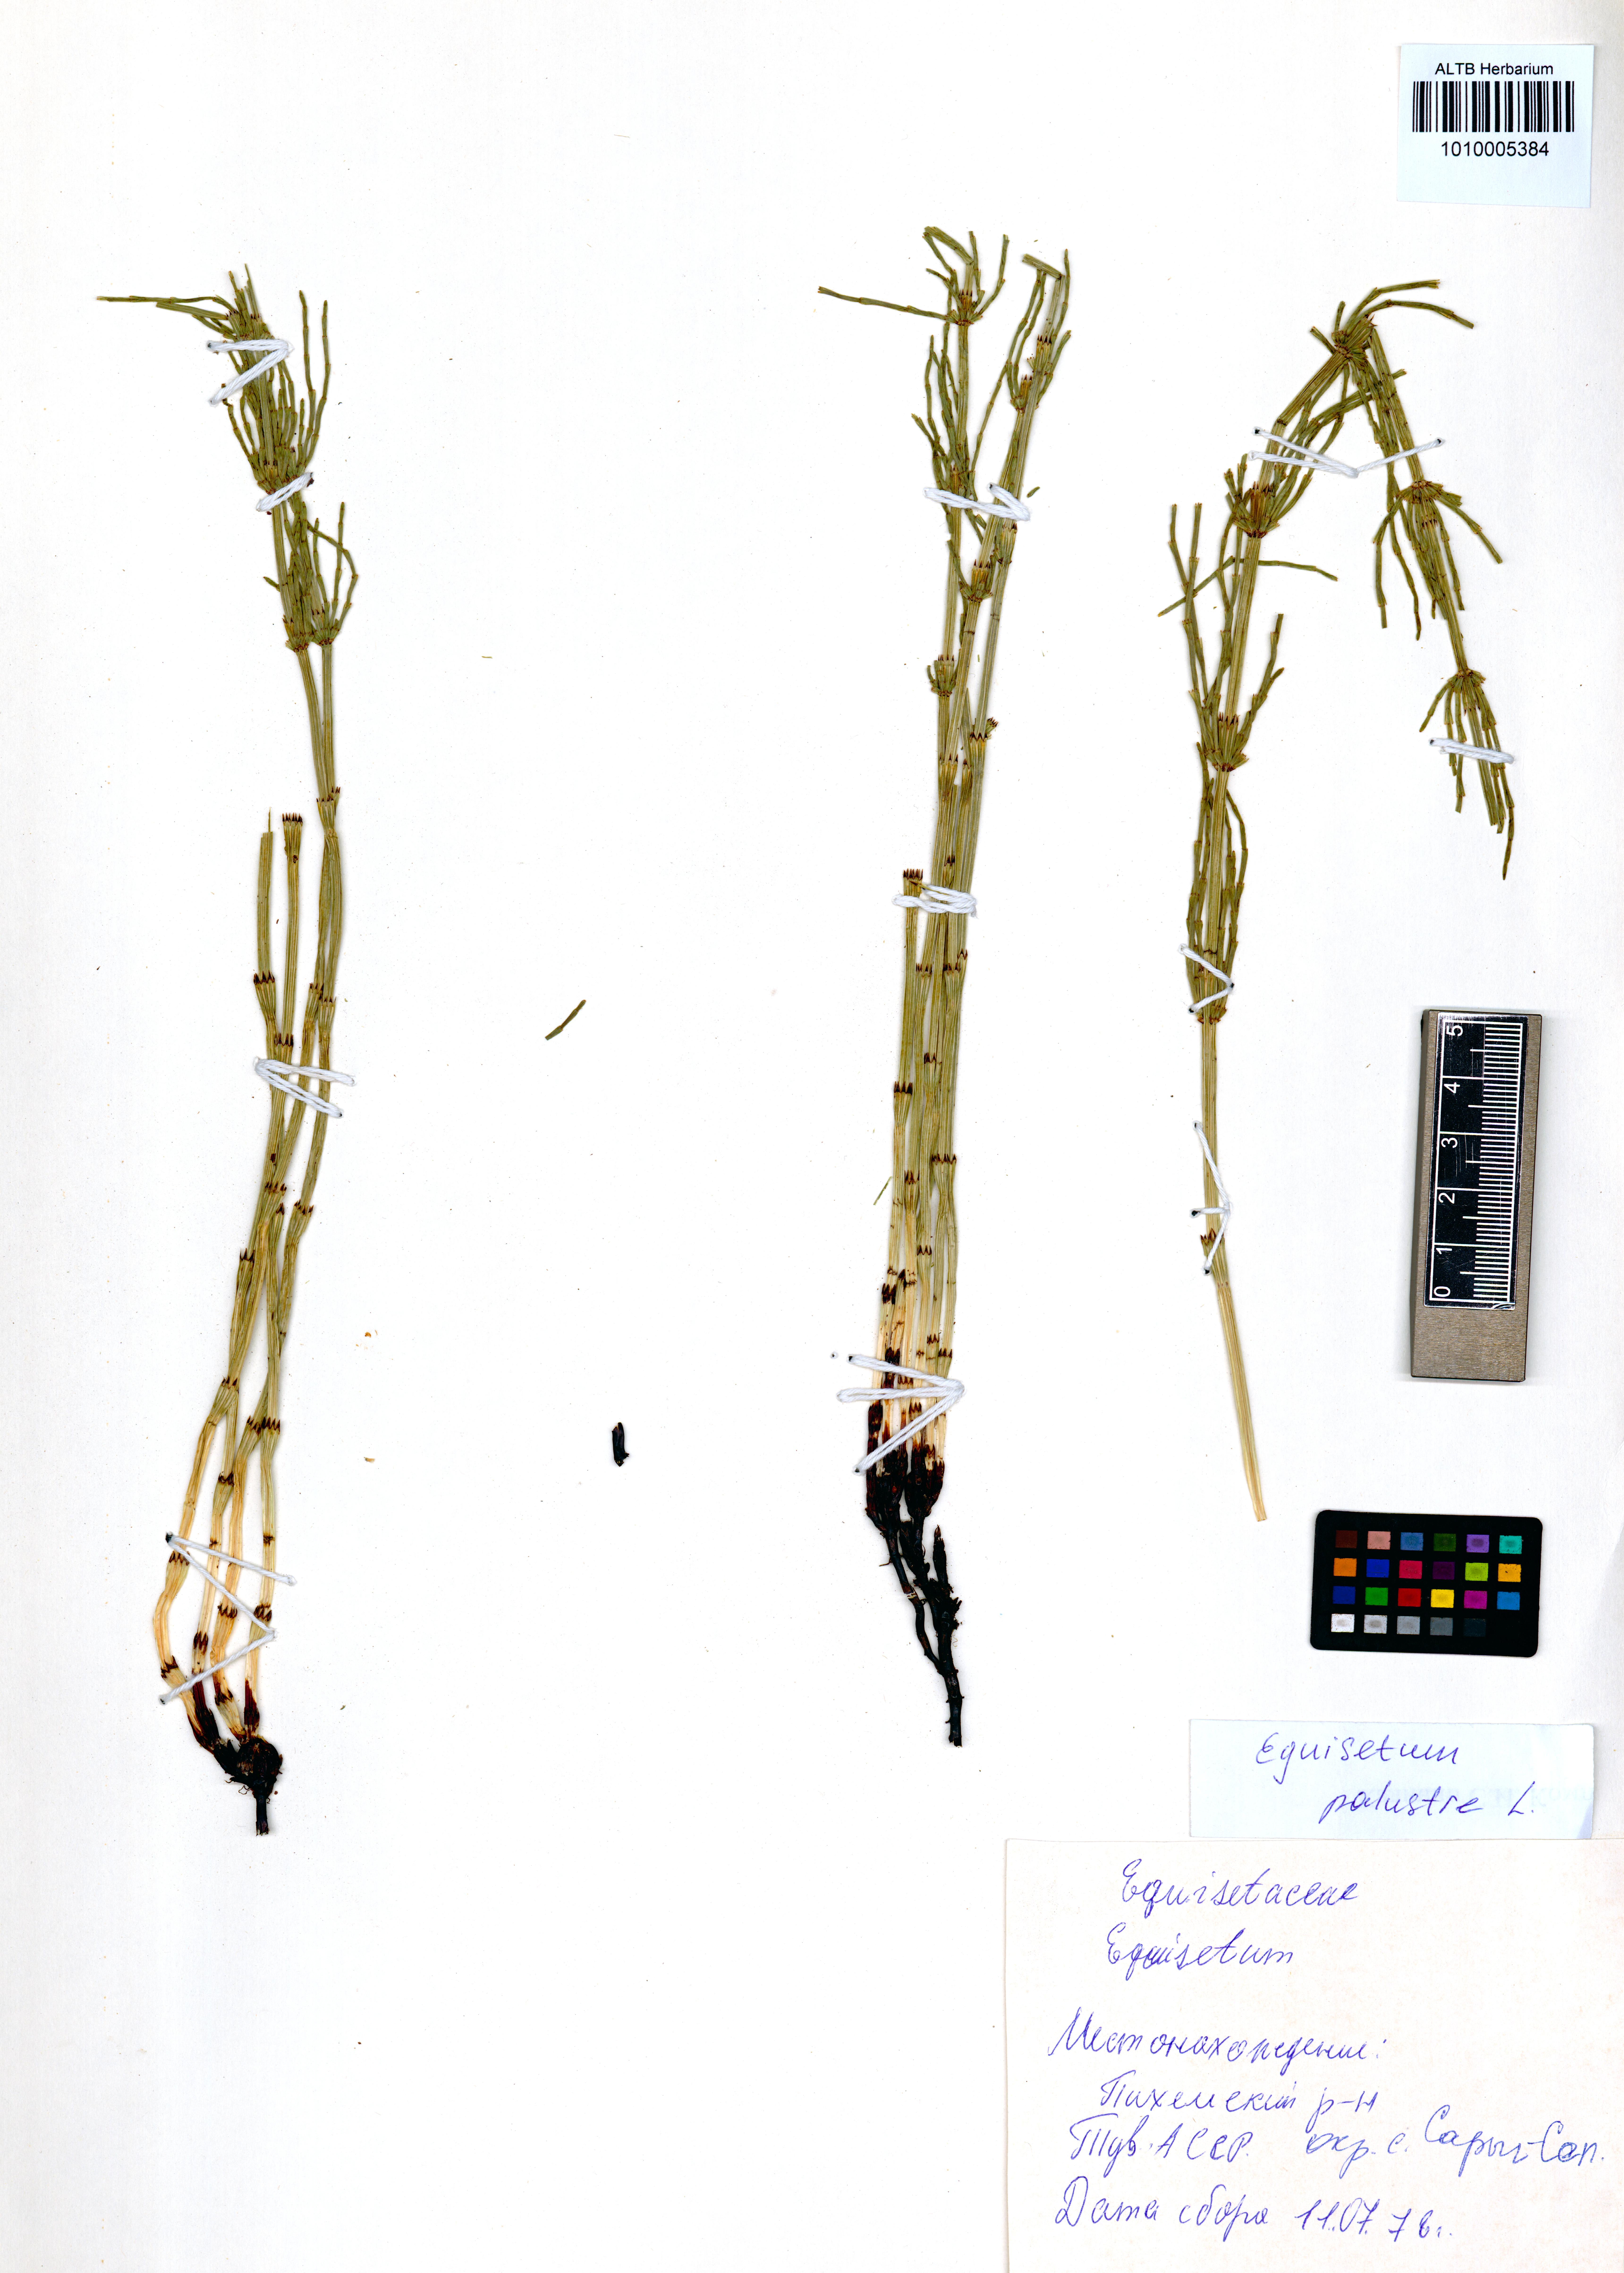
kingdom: Plantae
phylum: Tracheophyta
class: Polypodiopsida
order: Equisetales
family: Equisetaceae
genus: Equisetum
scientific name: Equisetum palustre
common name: Marsh horsetail
